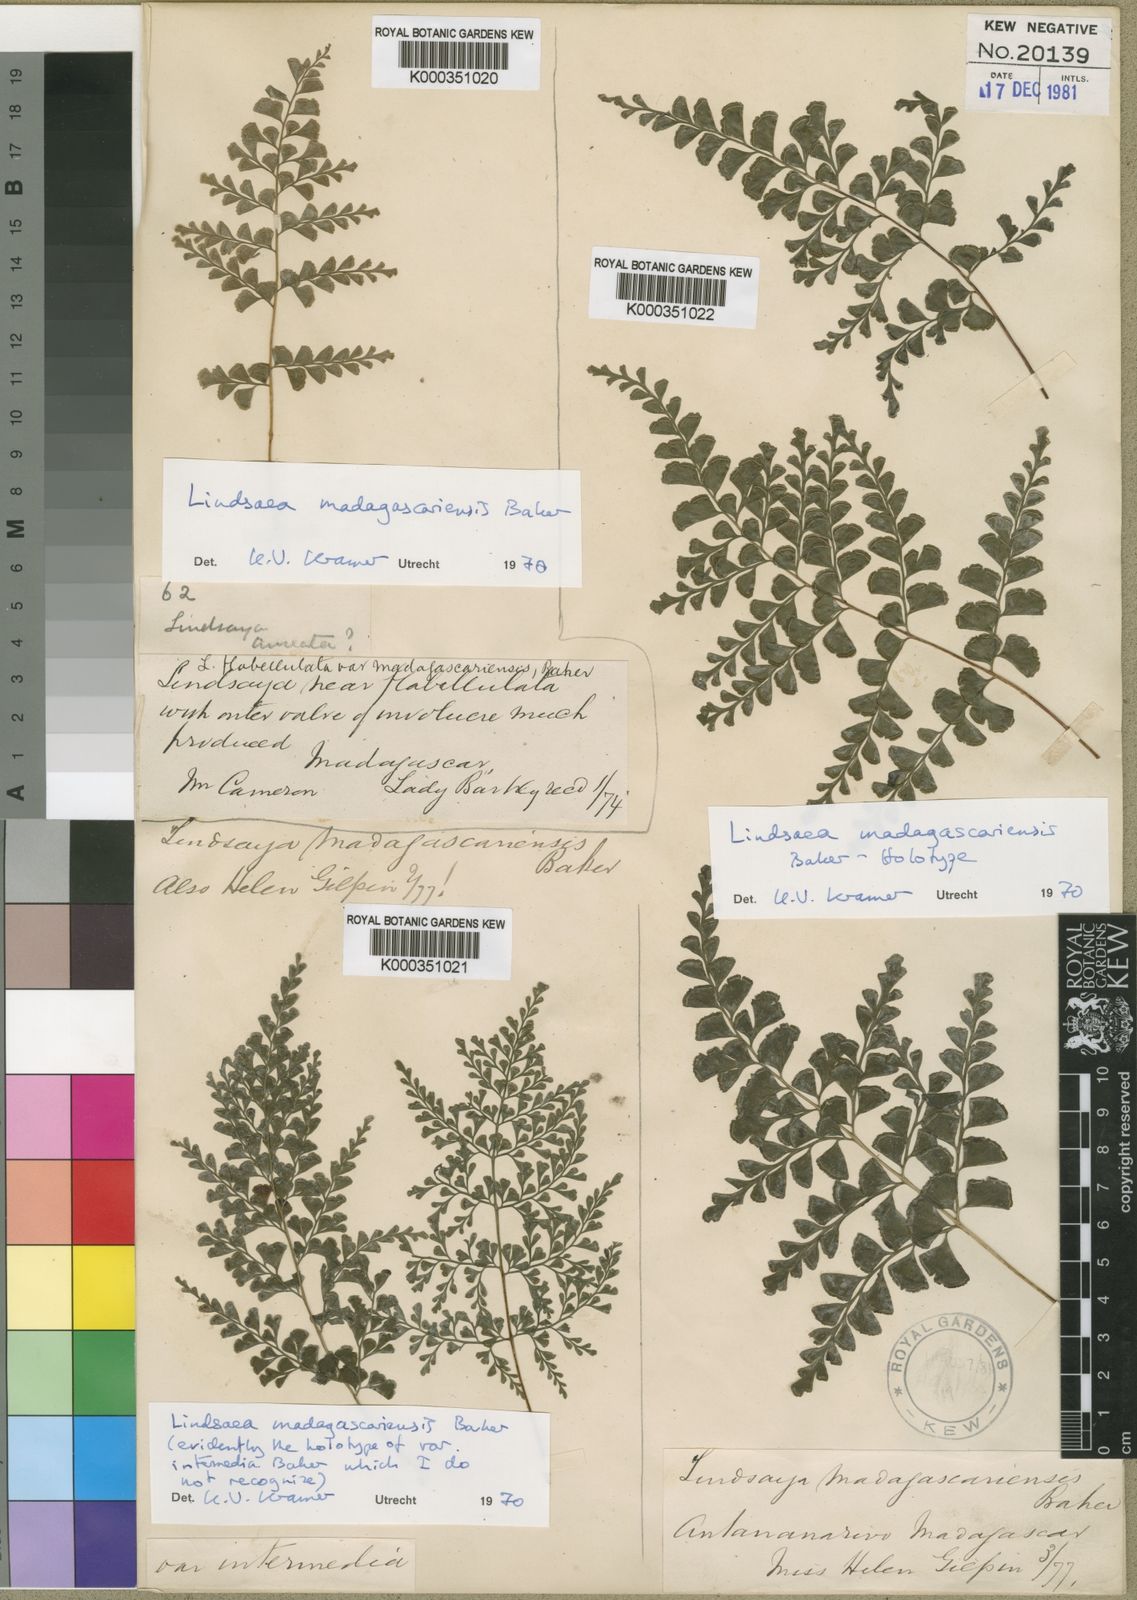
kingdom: Plantae
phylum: Tracheophyta
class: Polypodiopsida
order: Polypodiales
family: Lindsaeaceae
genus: Odontosoria
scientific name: Odontosoria madagascariensis
